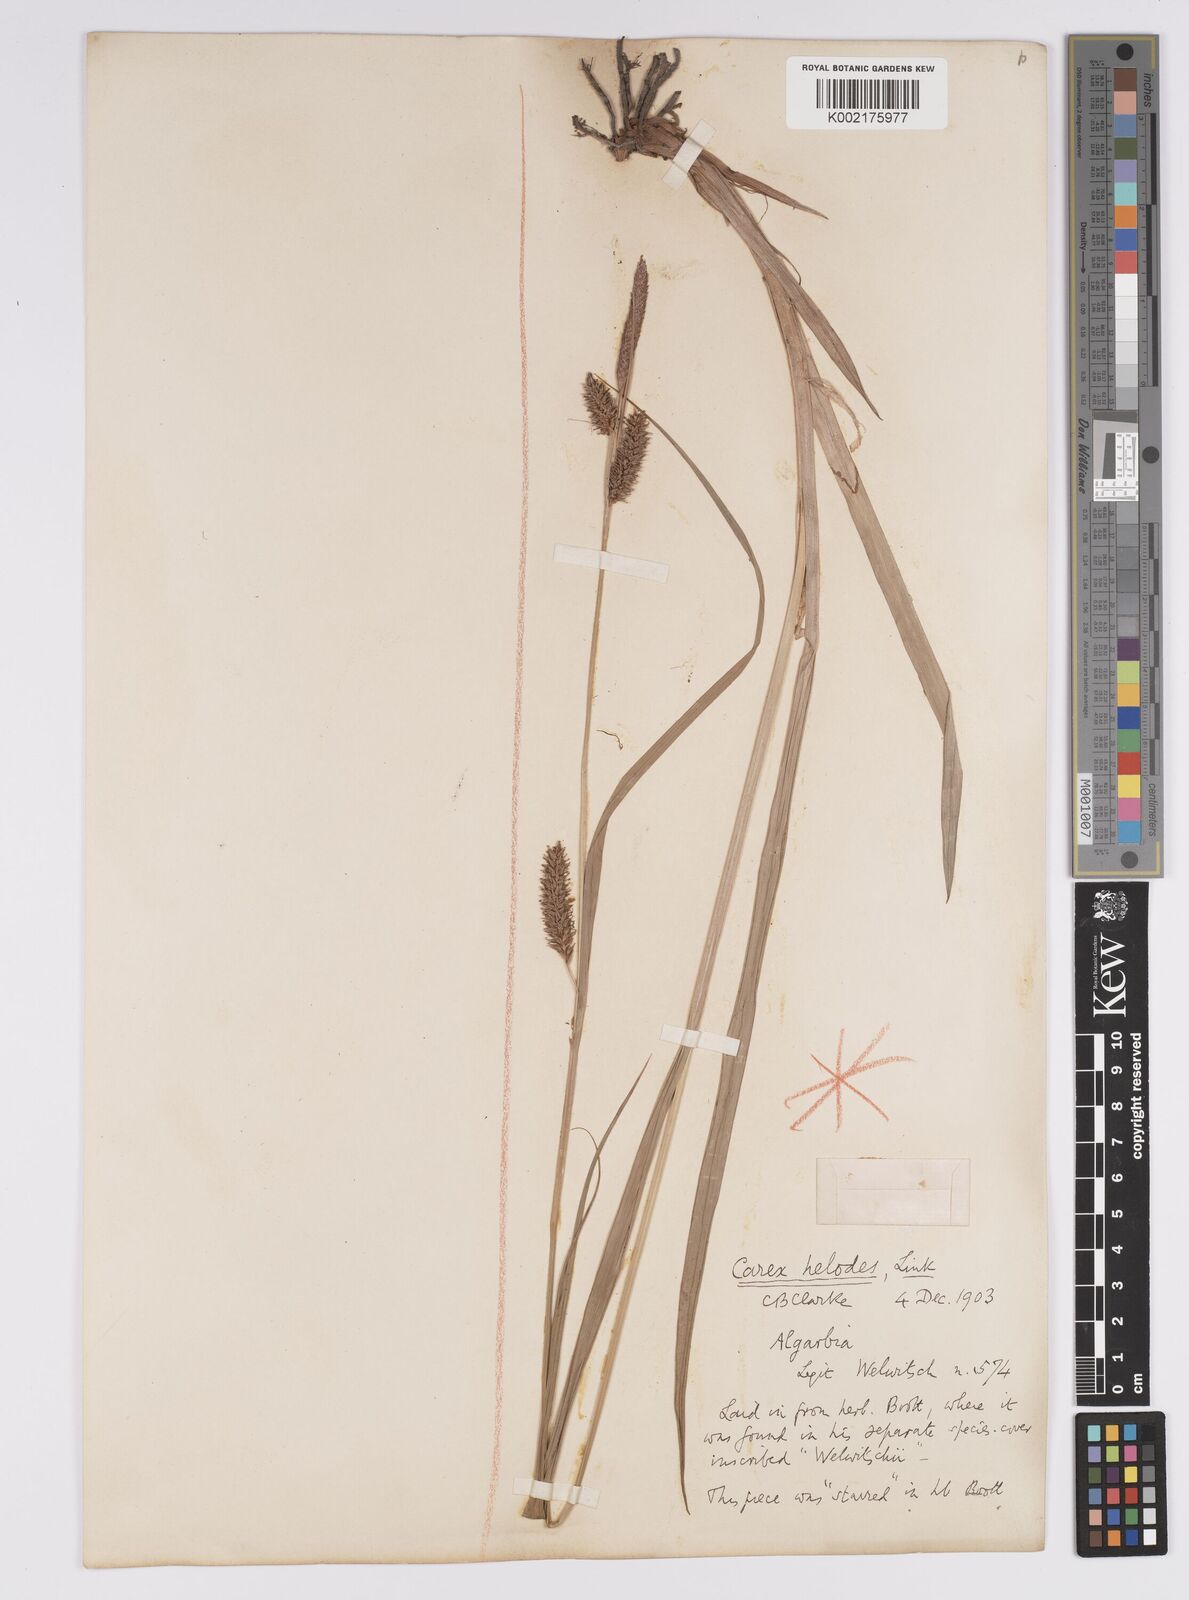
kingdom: Plantae
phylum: Tracheophyta
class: Liliopsida
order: Poales
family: Cyperaceae
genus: Carex
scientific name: Carex laevigata
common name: Smooth-stalked sedge
